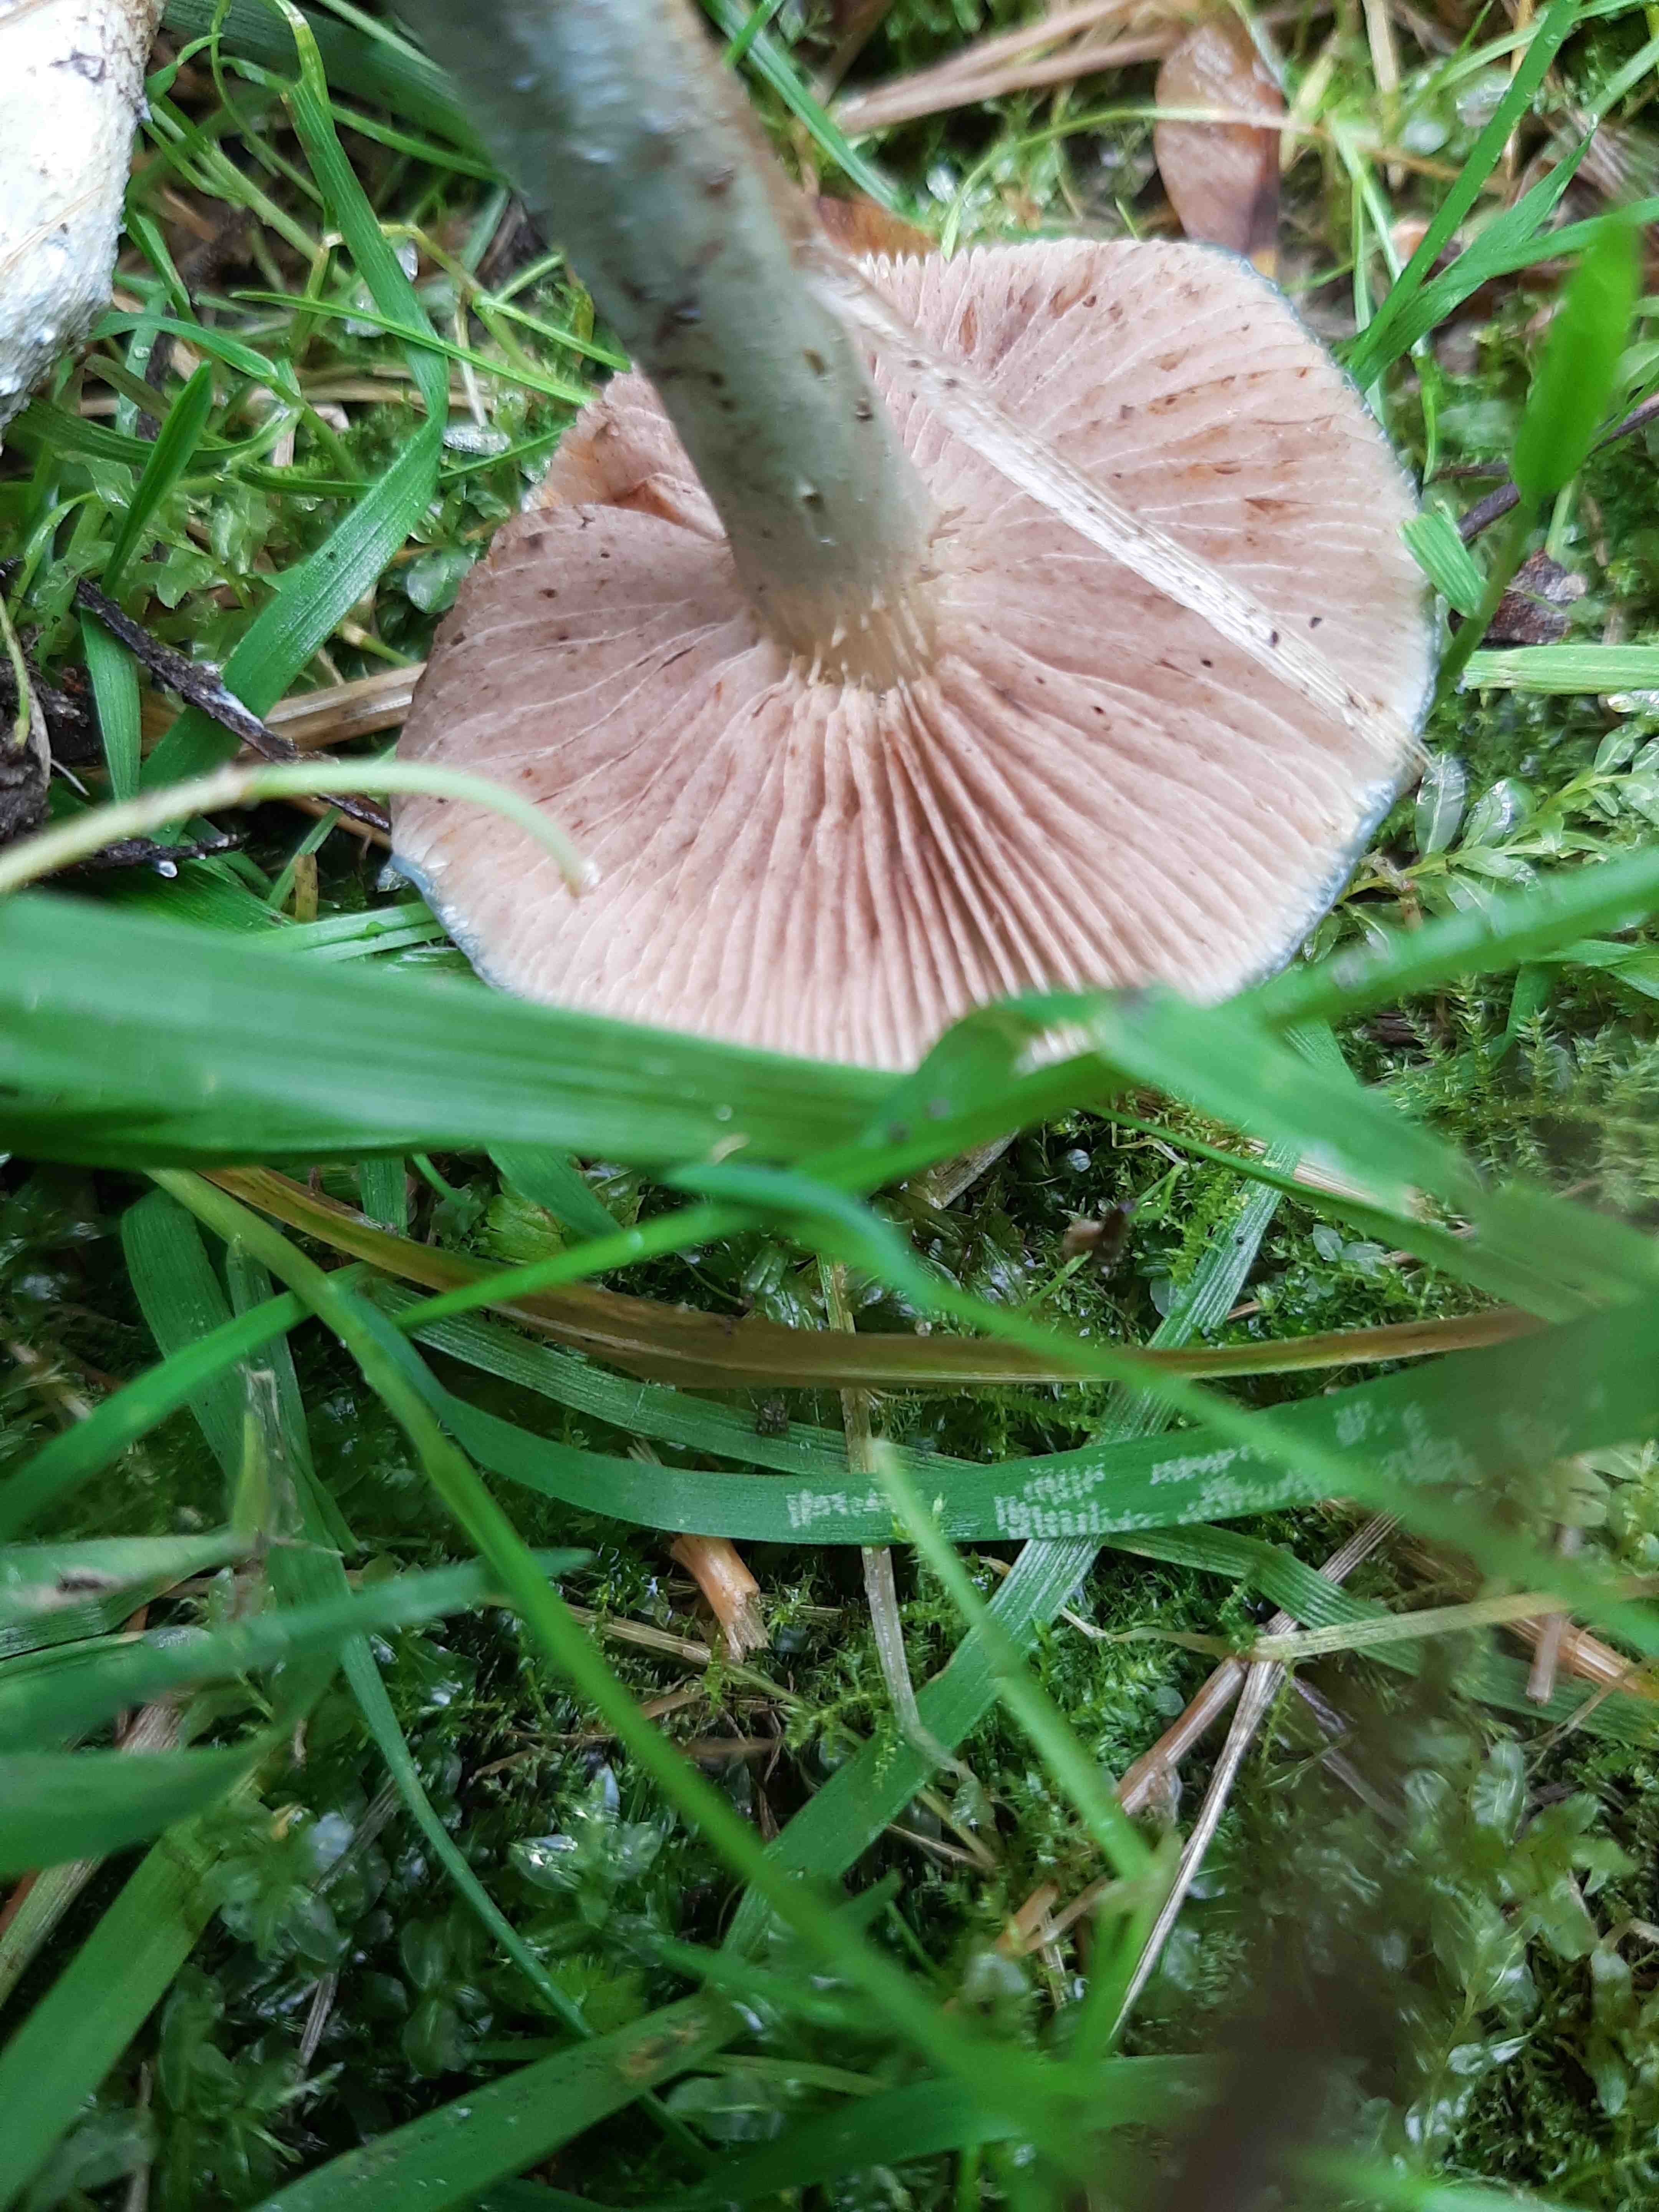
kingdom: Fungi
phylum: Basidiomycota
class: Agaricomycetes
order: Agaricales
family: Strophariaceae
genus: Stropharia
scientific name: Stropharia cyanea
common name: blågrøn bredblad
